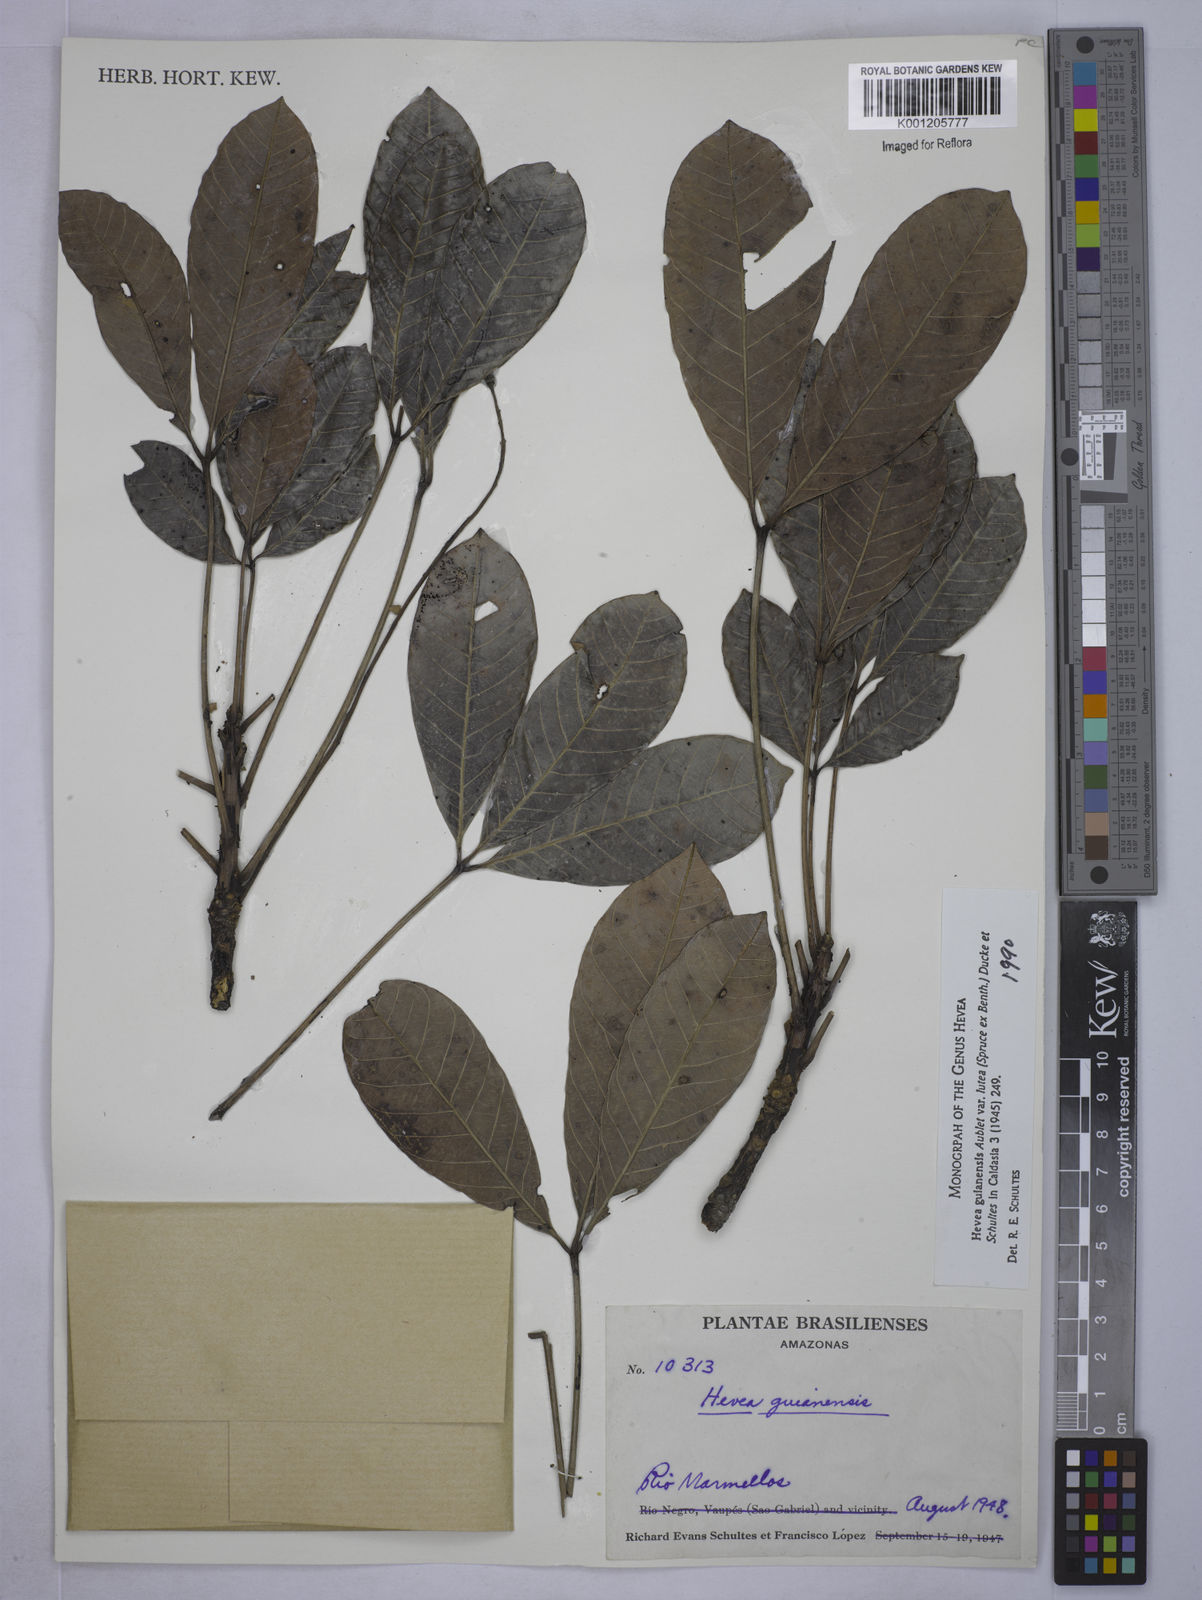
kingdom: Plantae
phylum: Tracheophyta
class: Magnoliopsida
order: Malpighiales
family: Euphorbiaceae
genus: Hevea
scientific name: Hevea guianensis
